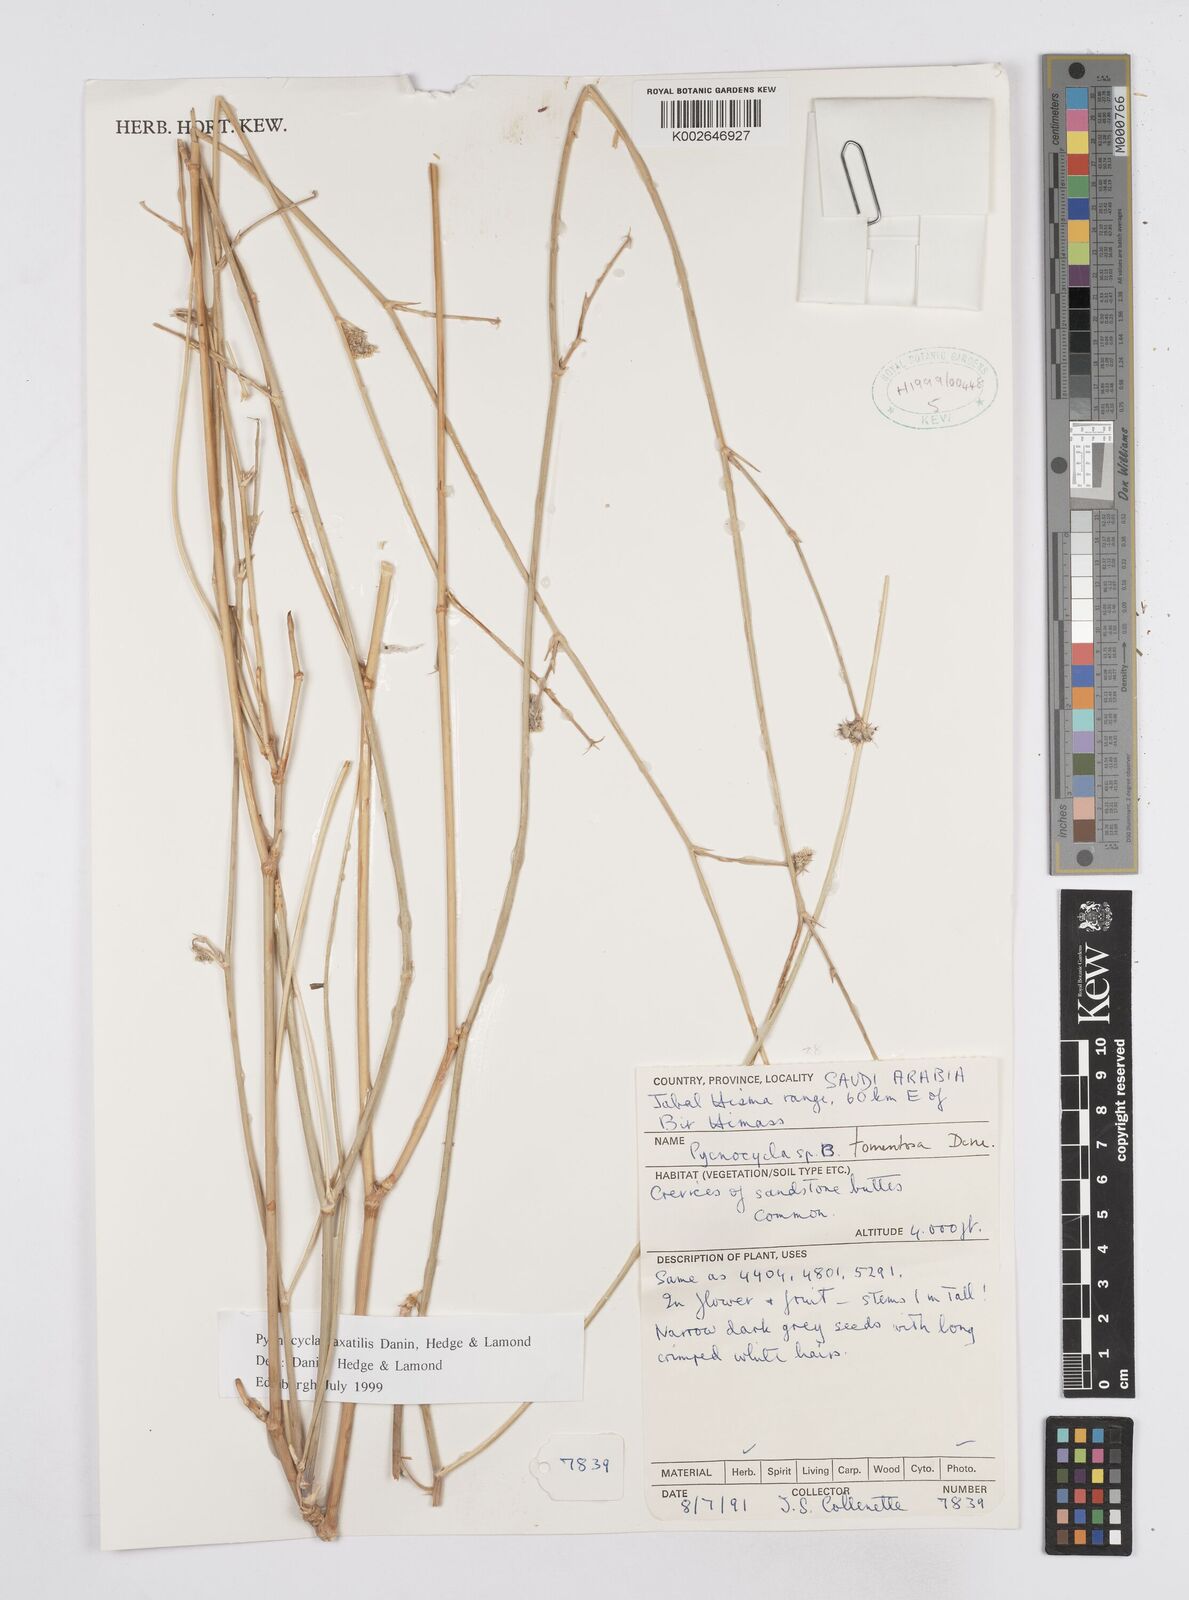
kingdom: Plantae
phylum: Tracheophyta
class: Magnoliopsida
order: Apiales
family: Apiaceae
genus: Pycnocycla
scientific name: Pycnocycla saxatilis
